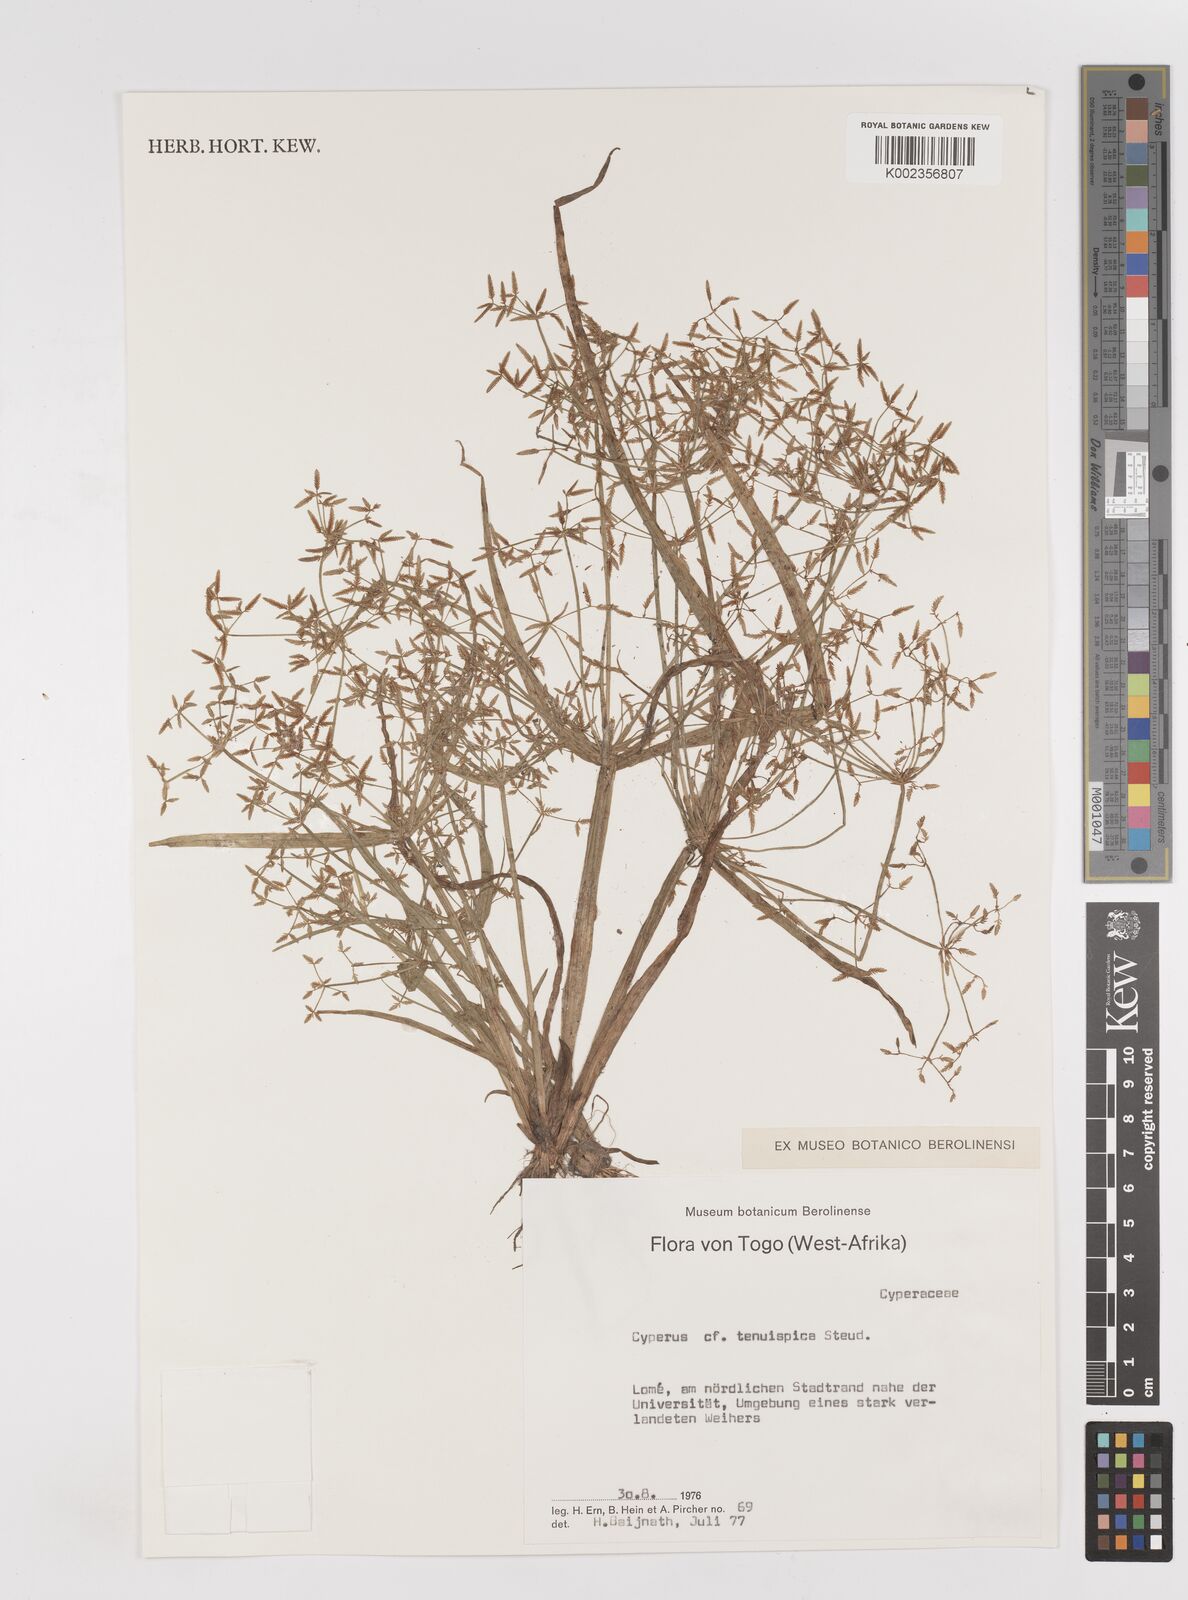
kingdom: Plantae
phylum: Tracheophyta
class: Liliopsida
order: Poales
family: Cyperaceae
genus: Cyperus
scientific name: Cyperus tenuispica
